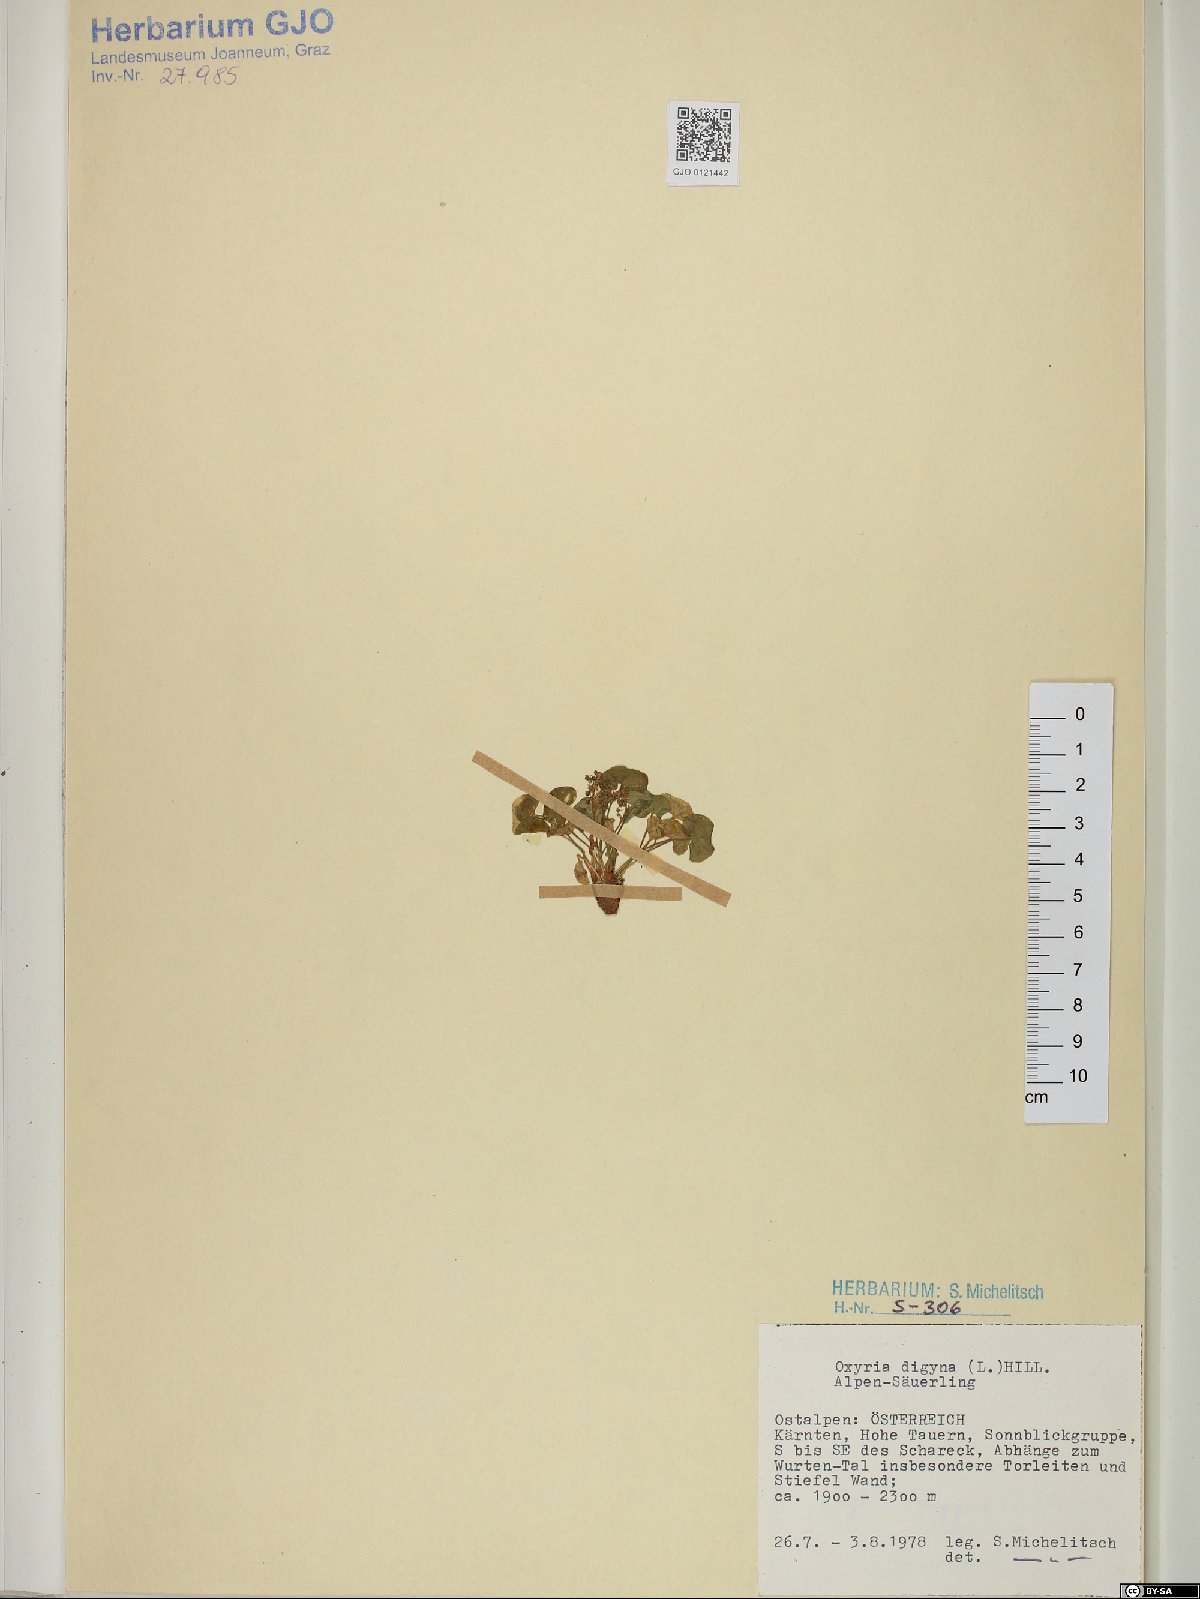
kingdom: Plantae
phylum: Tracheophyta
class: Magnoliopsida
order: Caryophyllales
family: Polygonaceae
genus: Oxyria
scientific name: Oxyria digyna
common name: Alpine mountain-sorrel
